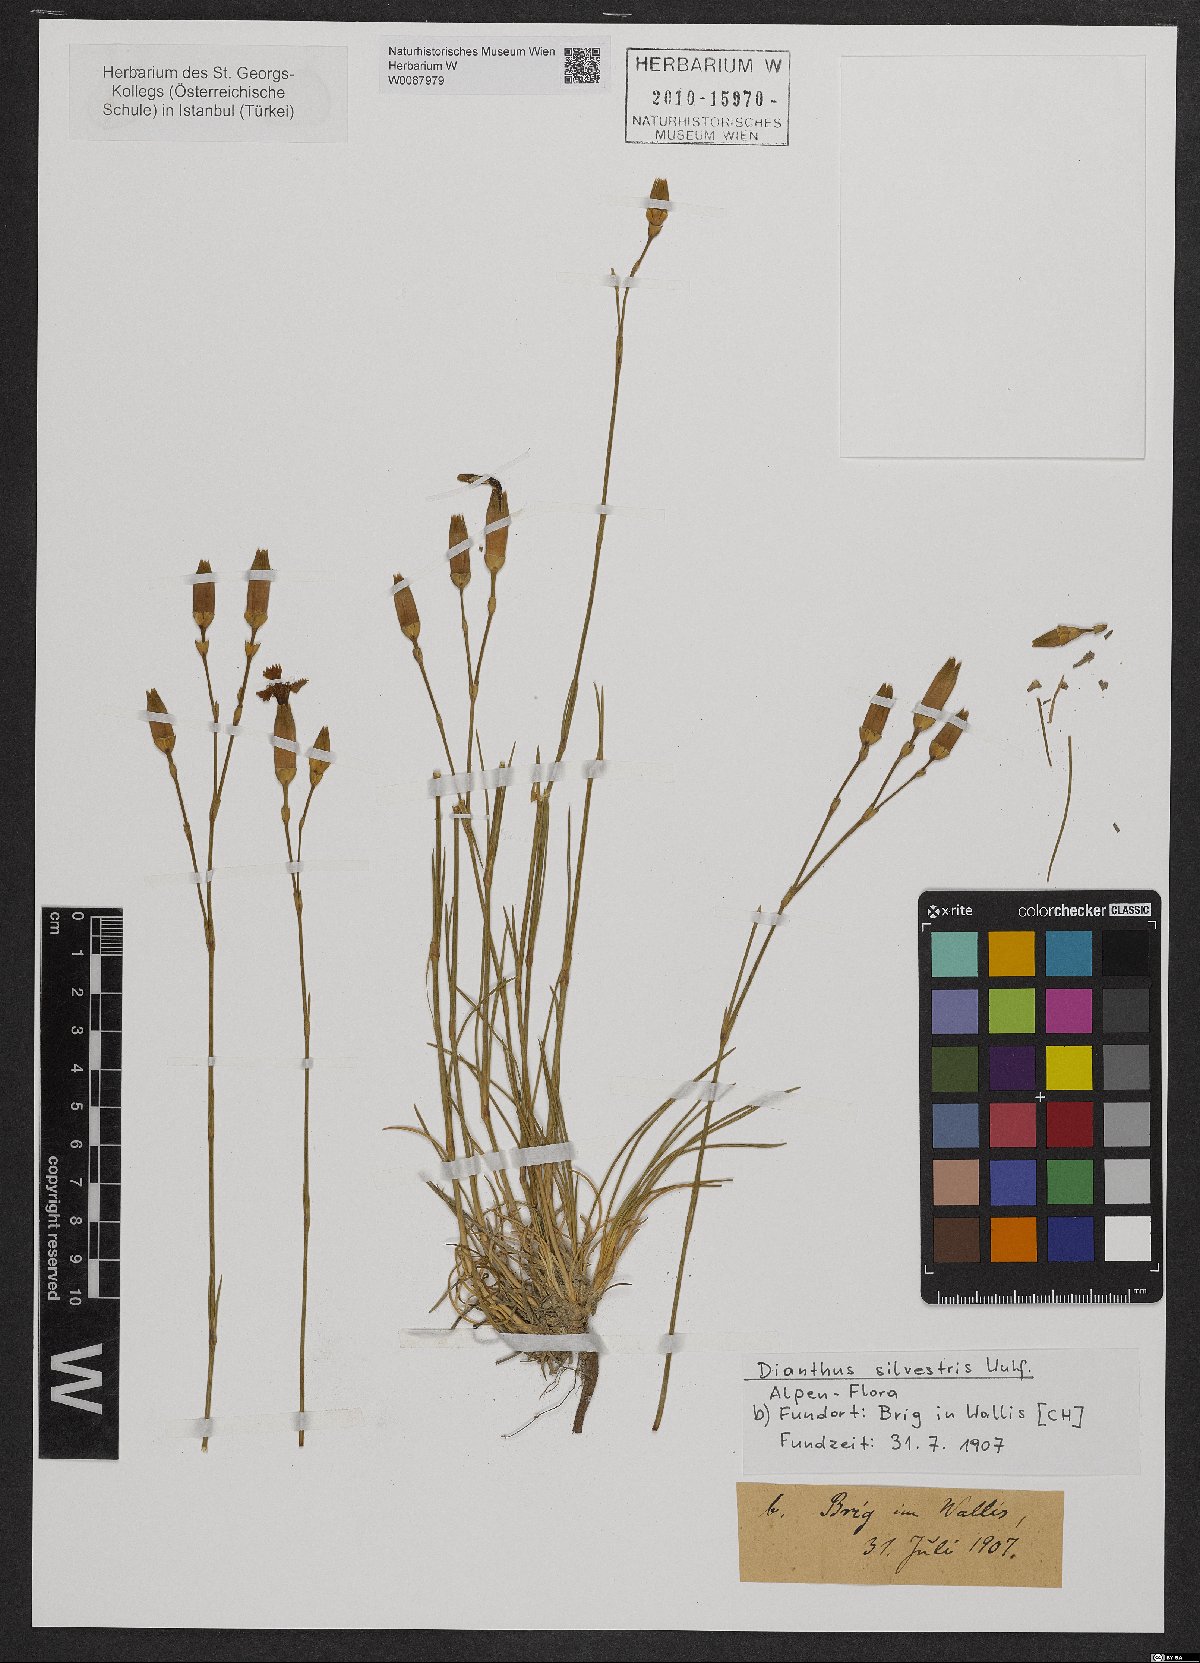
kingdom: Plantae
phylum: Tracheophyta
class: Magnoliopsida
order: Caryophyllales
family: Caryophyllaceae
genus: Dianthus
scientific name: Dianthus sylvestris
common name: Wood pink
